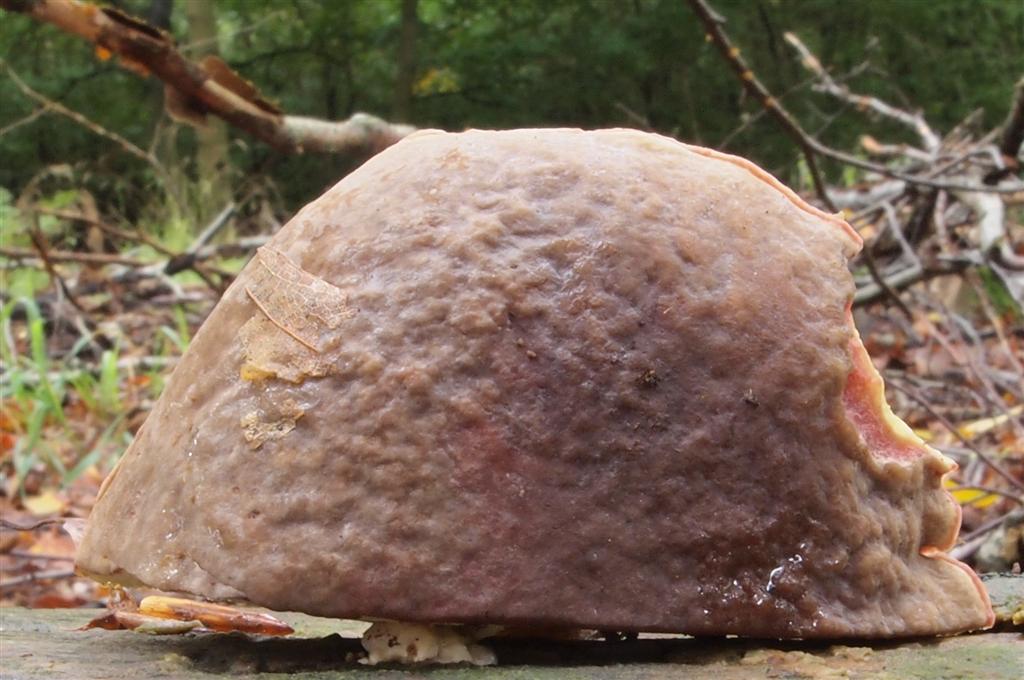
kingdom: Fungi
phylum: Basidiomycota
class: Agaricomycetes
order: Boletales
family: Boletaceae
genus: Xerocomellus
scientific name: Xerocomellus pruinatus
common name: dugget rørhat
